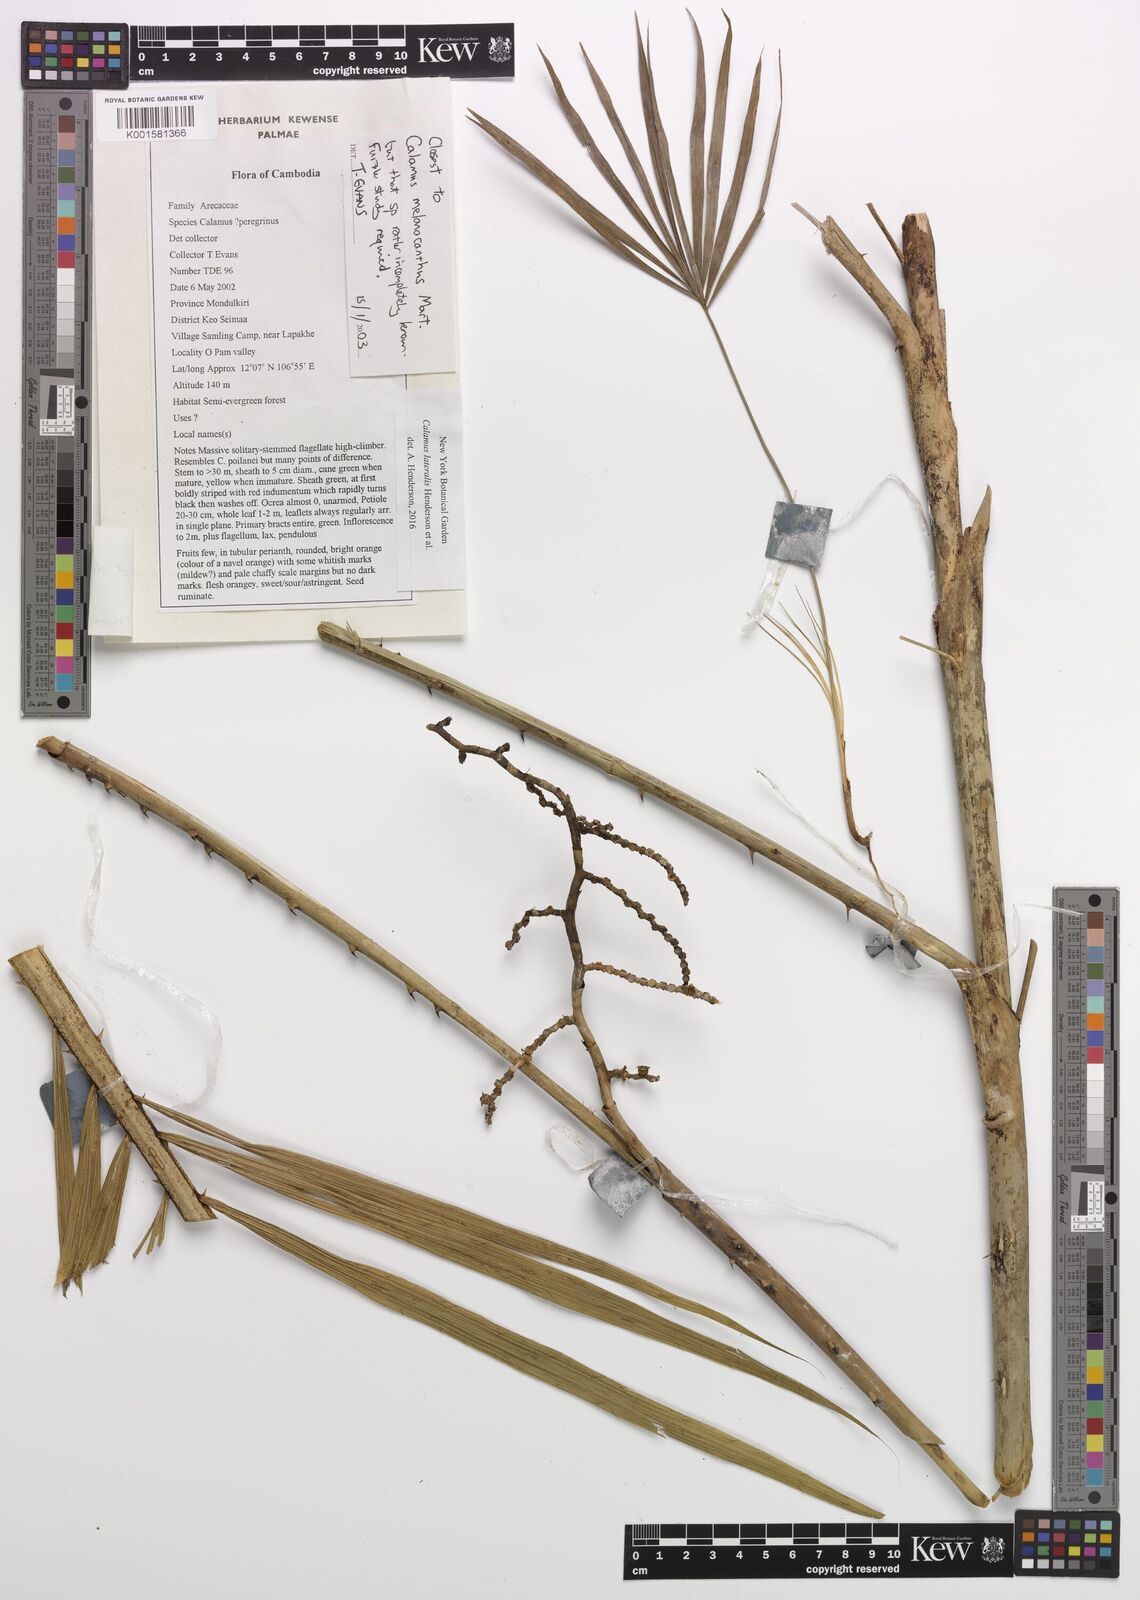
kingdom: Plantae
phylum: Tracheophyta
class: Liliopsida
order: Arecales
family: Arecaceae
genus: Calamus
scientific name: Calamus lateralis
